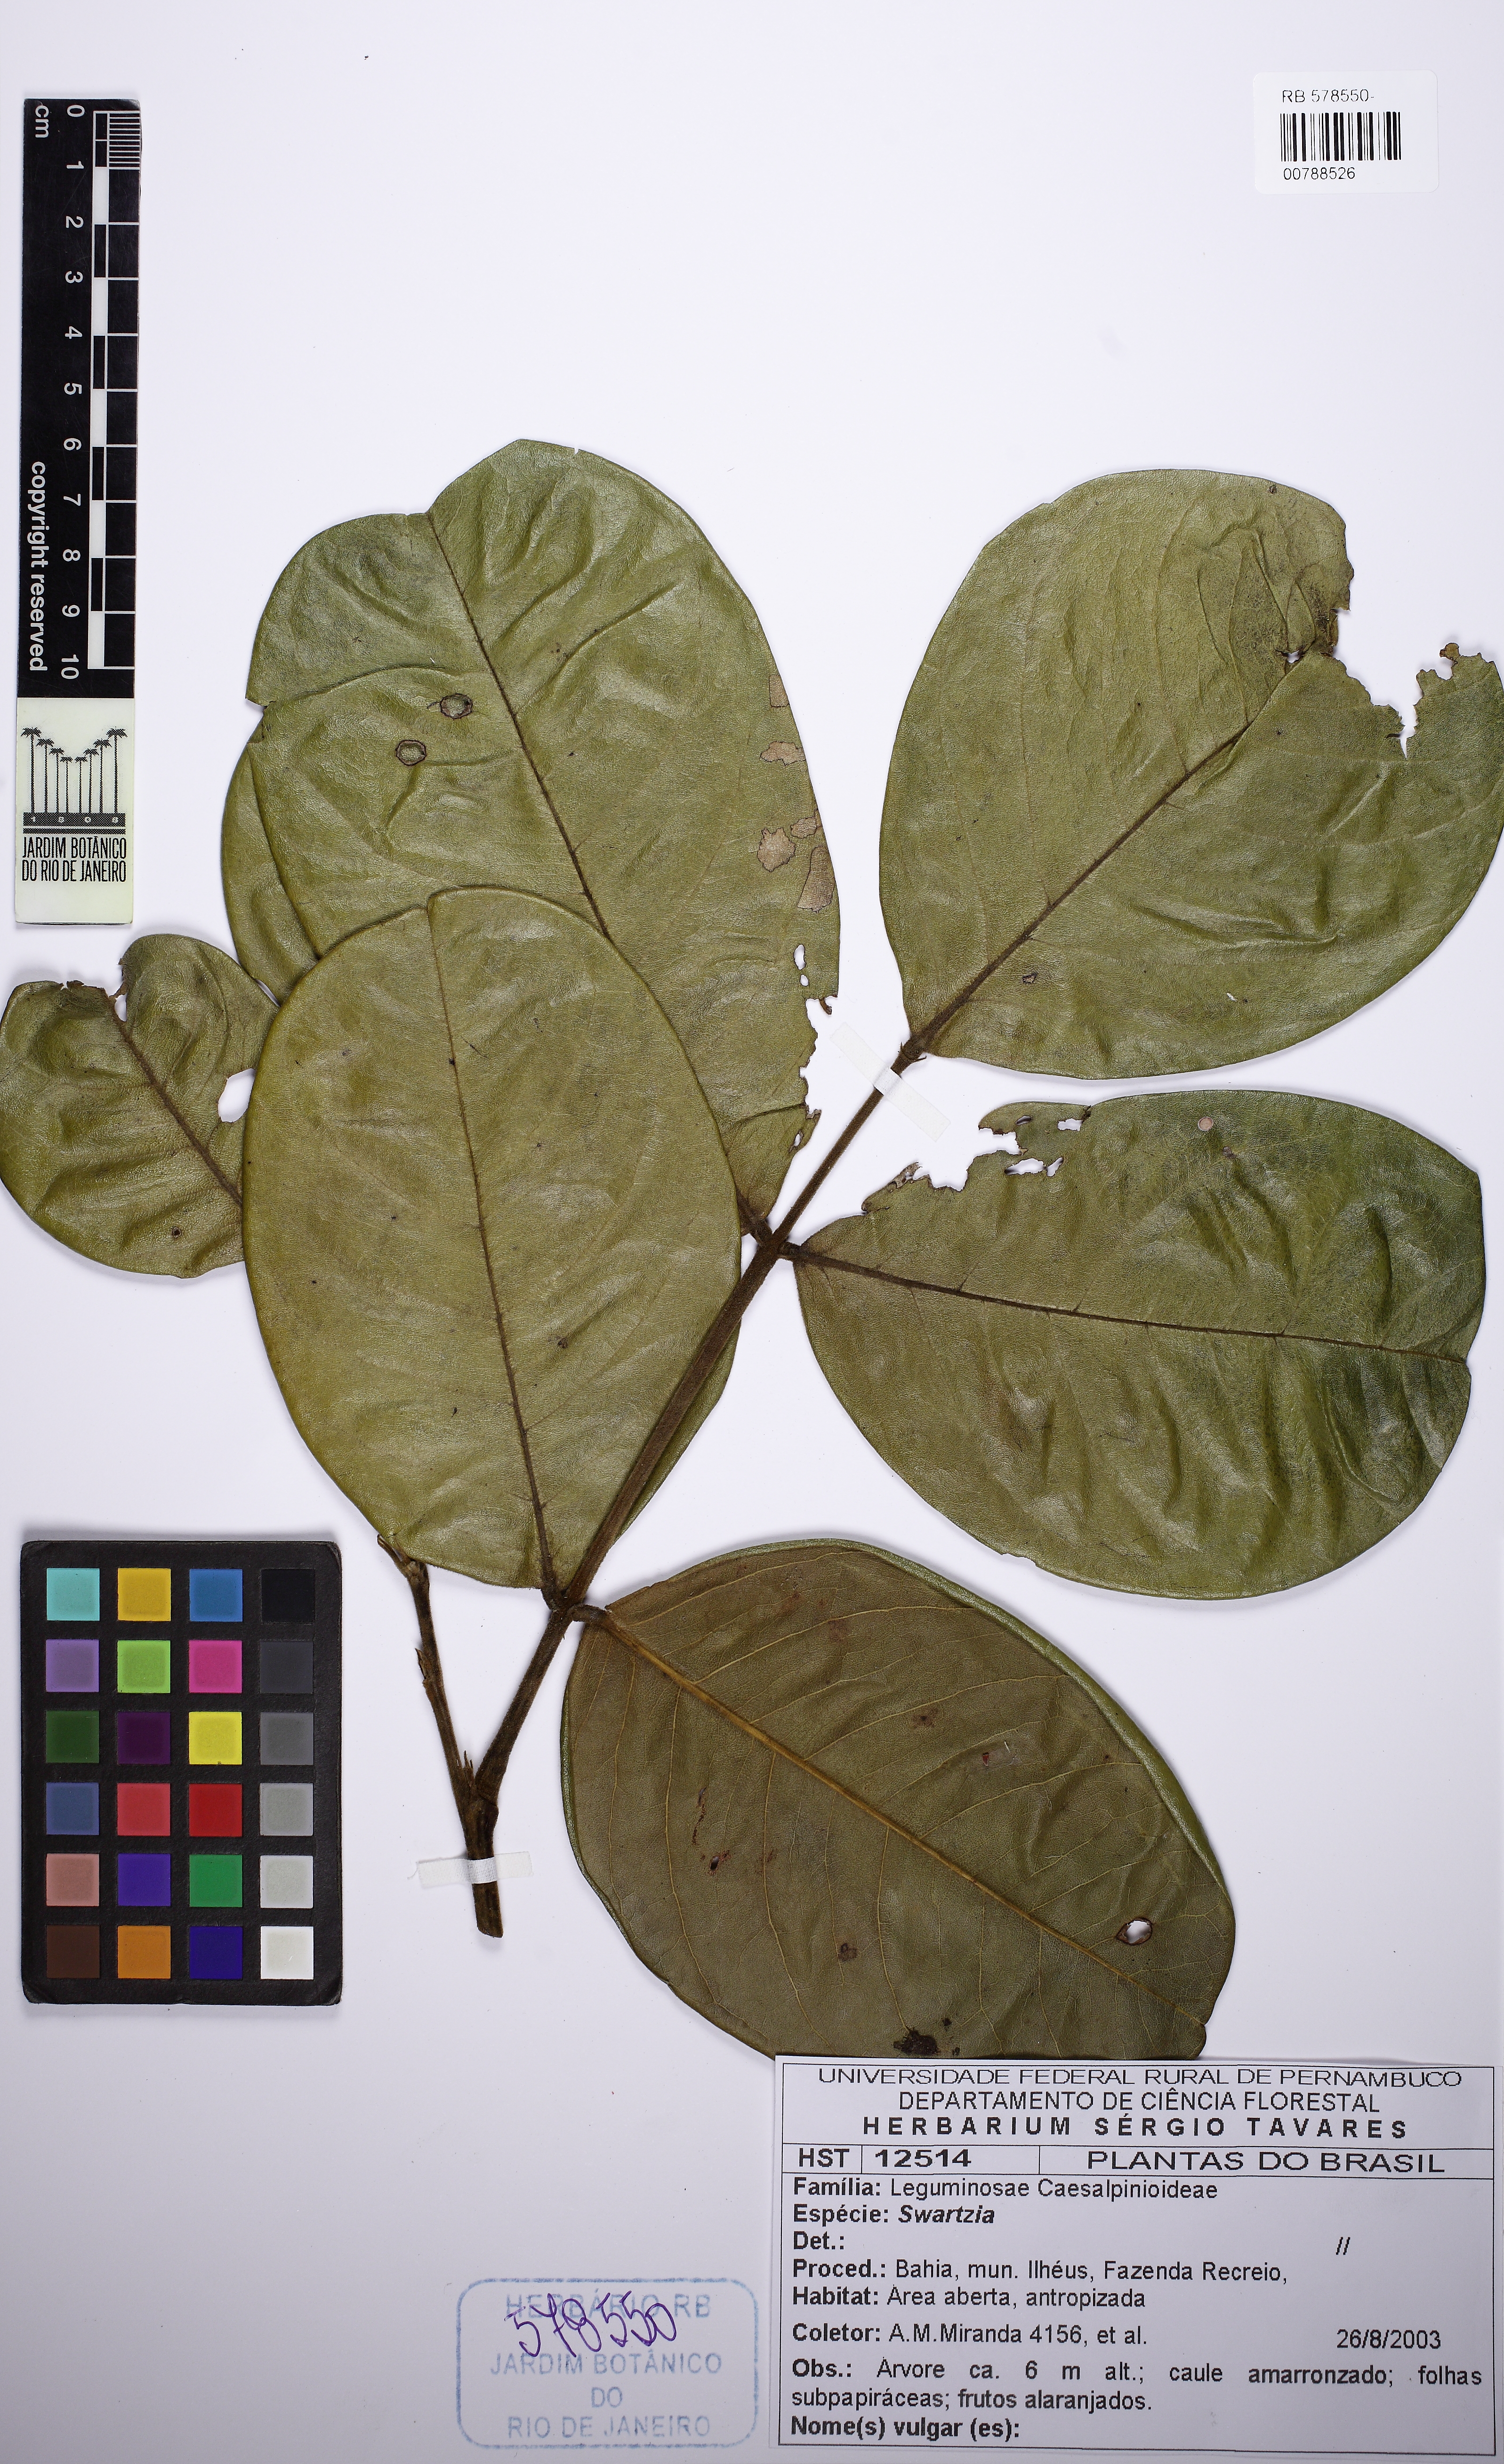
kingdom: Plantae
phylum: Tracheophyta
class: Magnoliopsida
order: Fabales
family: Fabaceae
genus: Swartzia
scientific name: Swartzia
